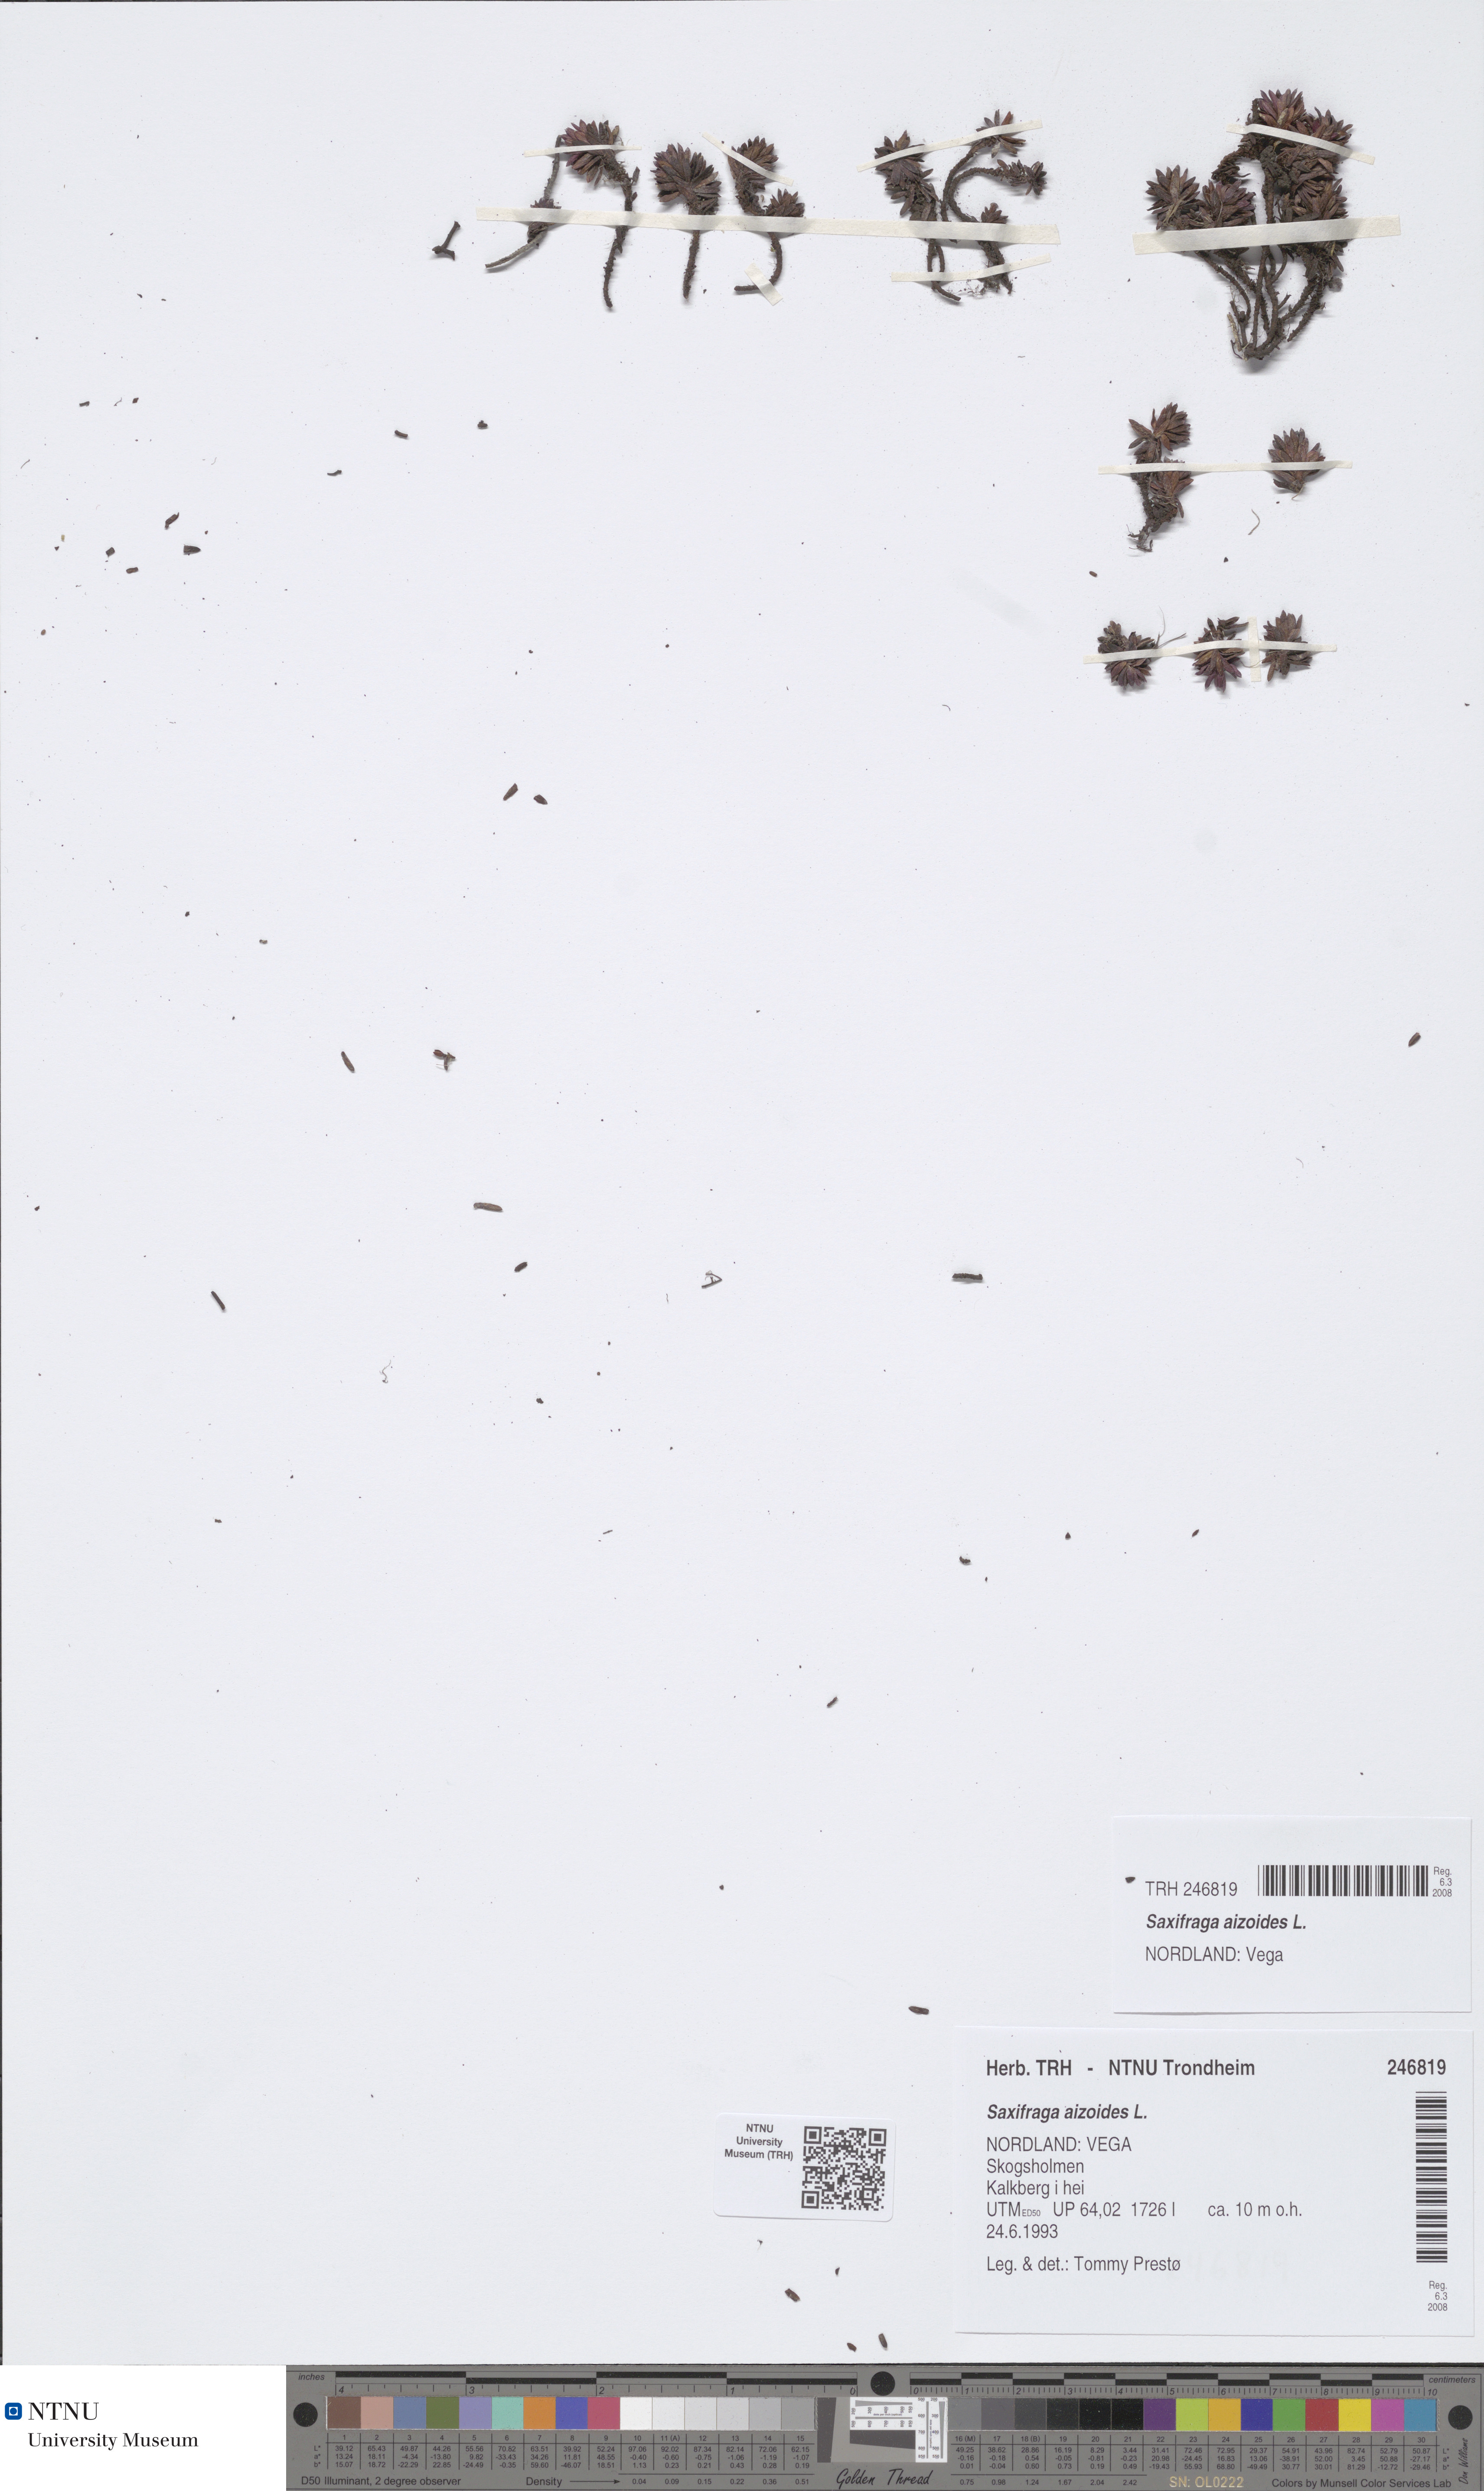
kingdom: Plantae
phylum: Tracheophyta
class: Magnoliopsida
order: Saxifragales
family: Saxifragaceae
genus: Saxifraga
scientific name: Saxifraga aizoides
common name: Yellow mountain saxifrage
